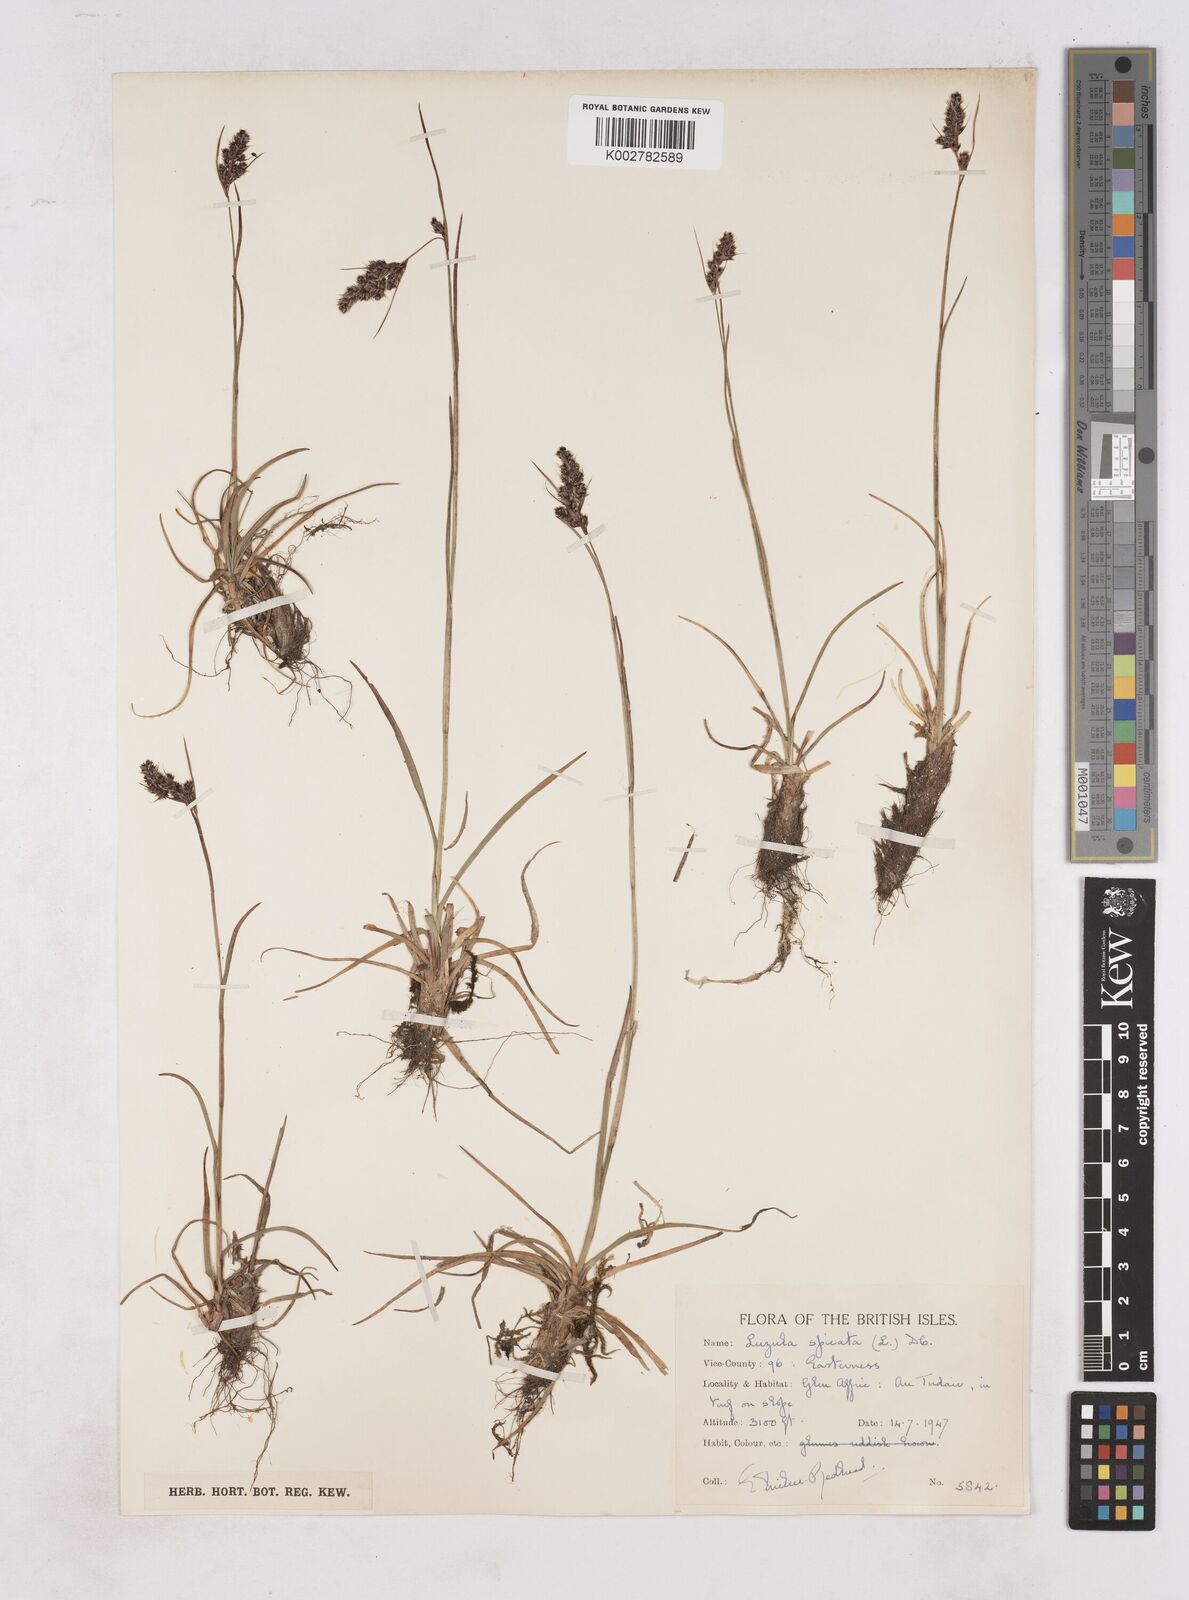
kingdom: Plantae
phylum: Tracheophyta
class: Liliopsida
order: Poales
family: Juncaceae
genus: Luzula
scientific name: Luzula spicata
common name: Spiked wood-rush
